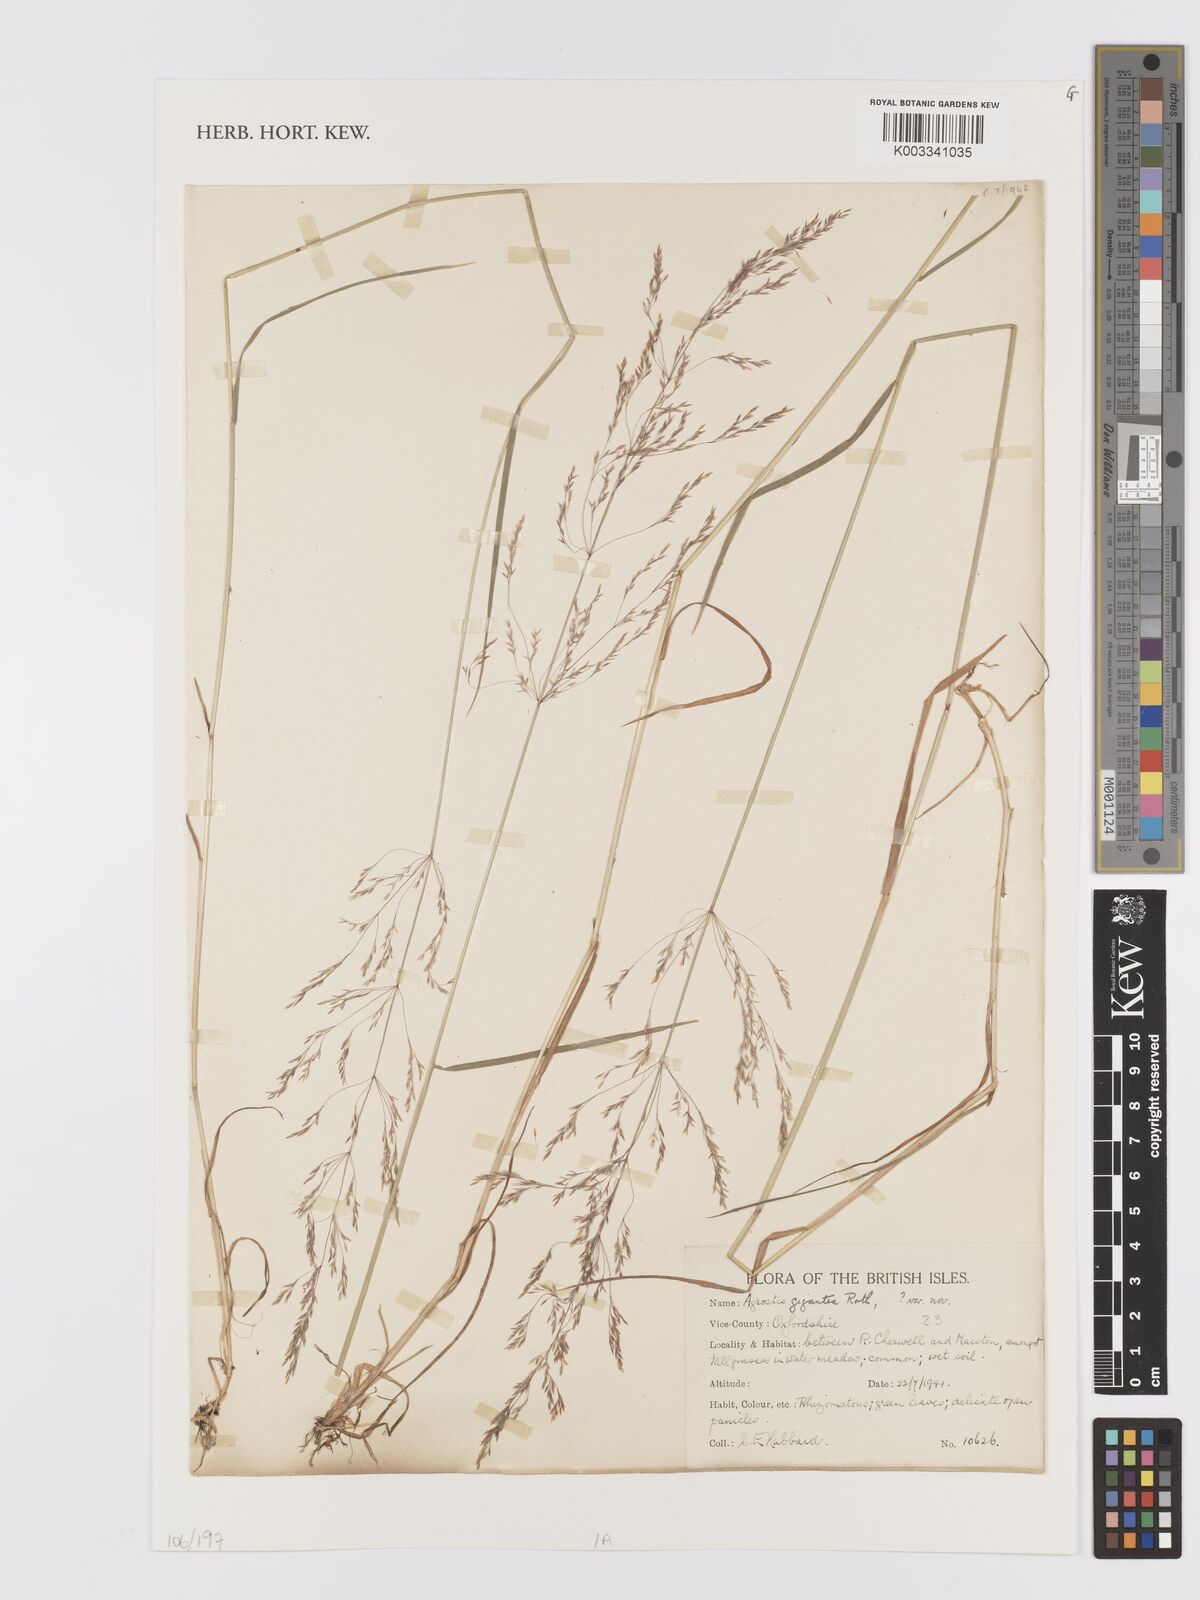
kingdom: Plantae
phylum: Tracheophyta
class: Liliopsida
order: Poales
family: Poaceae
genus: Agrostis
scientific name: Agrostis gigantea
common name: Black bent
